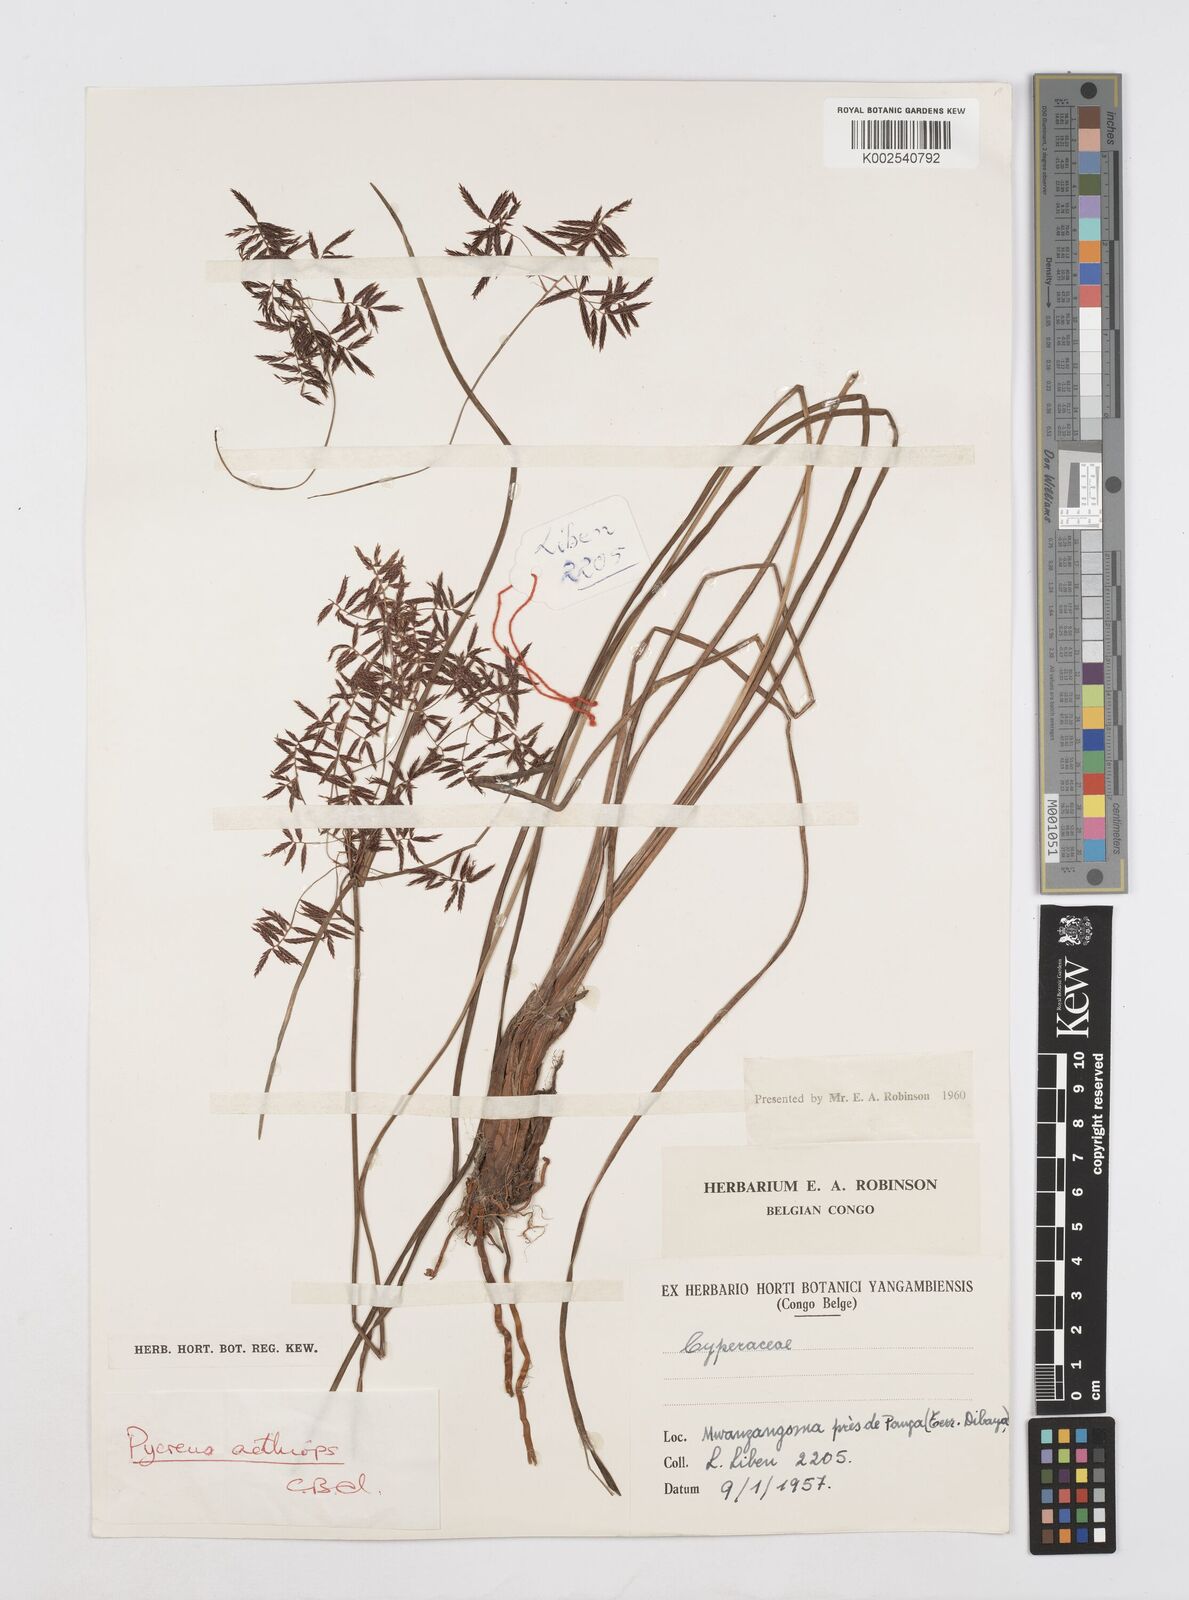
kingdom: Plantae
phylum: Tracheophyta
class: Liliopsida
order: Poales
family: Cyperaceae
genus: Cyperus
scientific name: Cyperus aethiops
